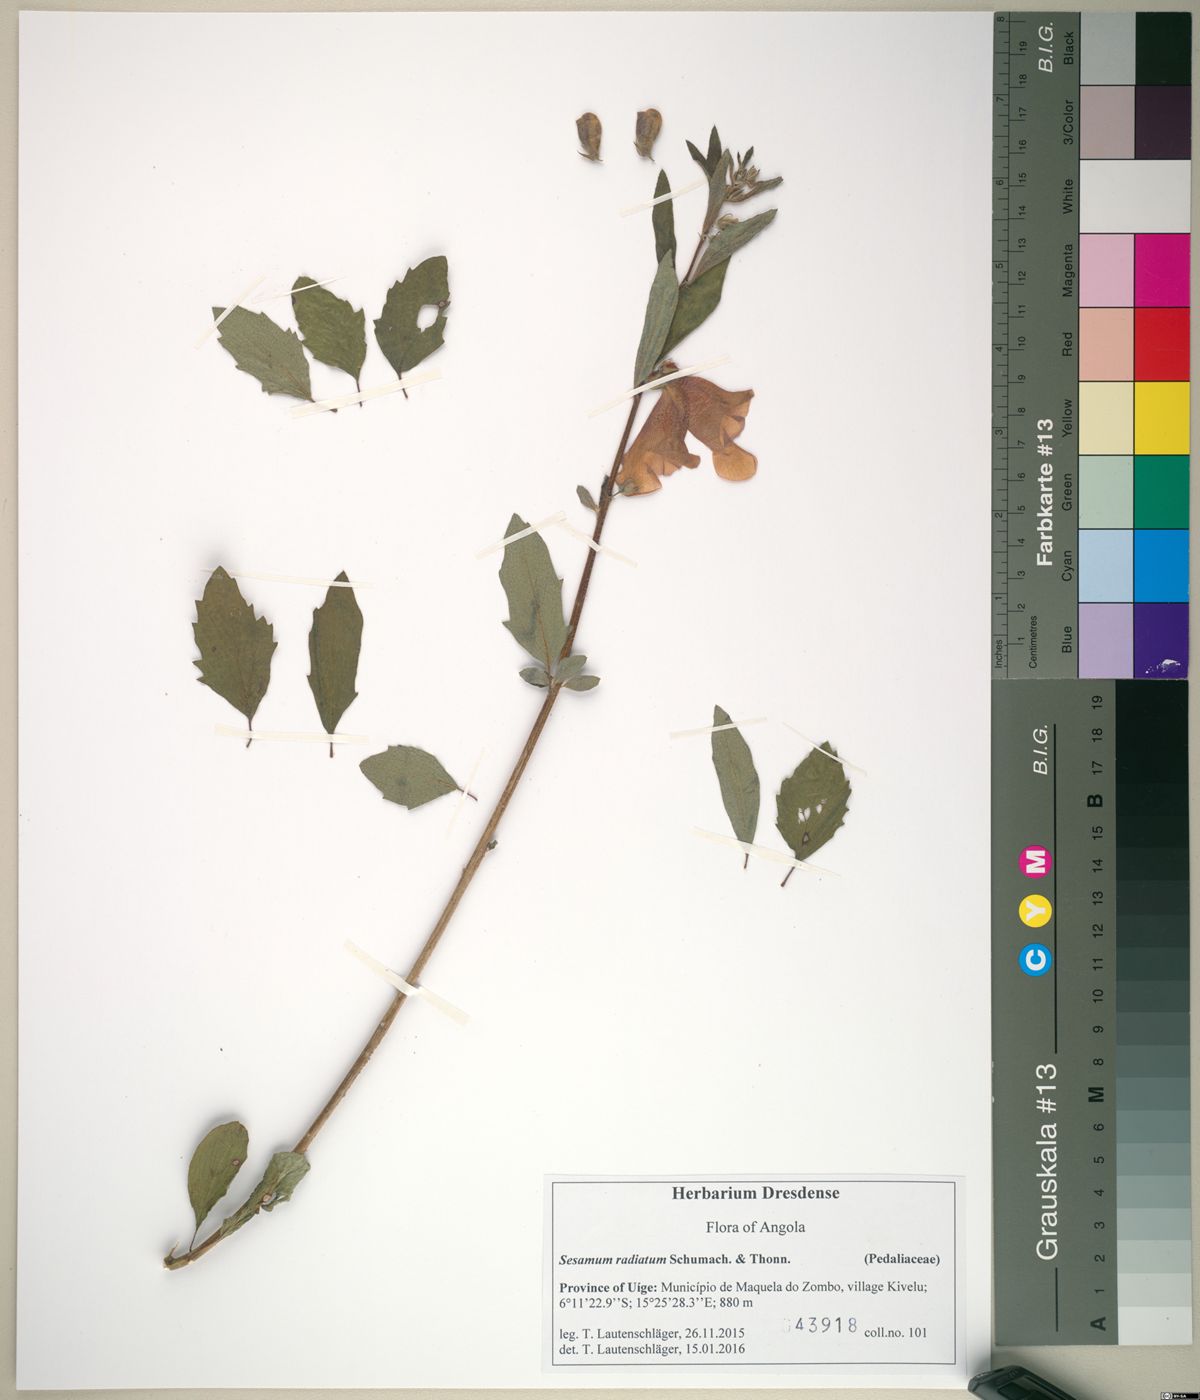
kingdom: Plantae
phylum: Tracheophyta
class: Magnoliopsida
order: Lamiales
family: Pedaliaceae
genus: Sesamum
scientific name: Sesamum radiatum
